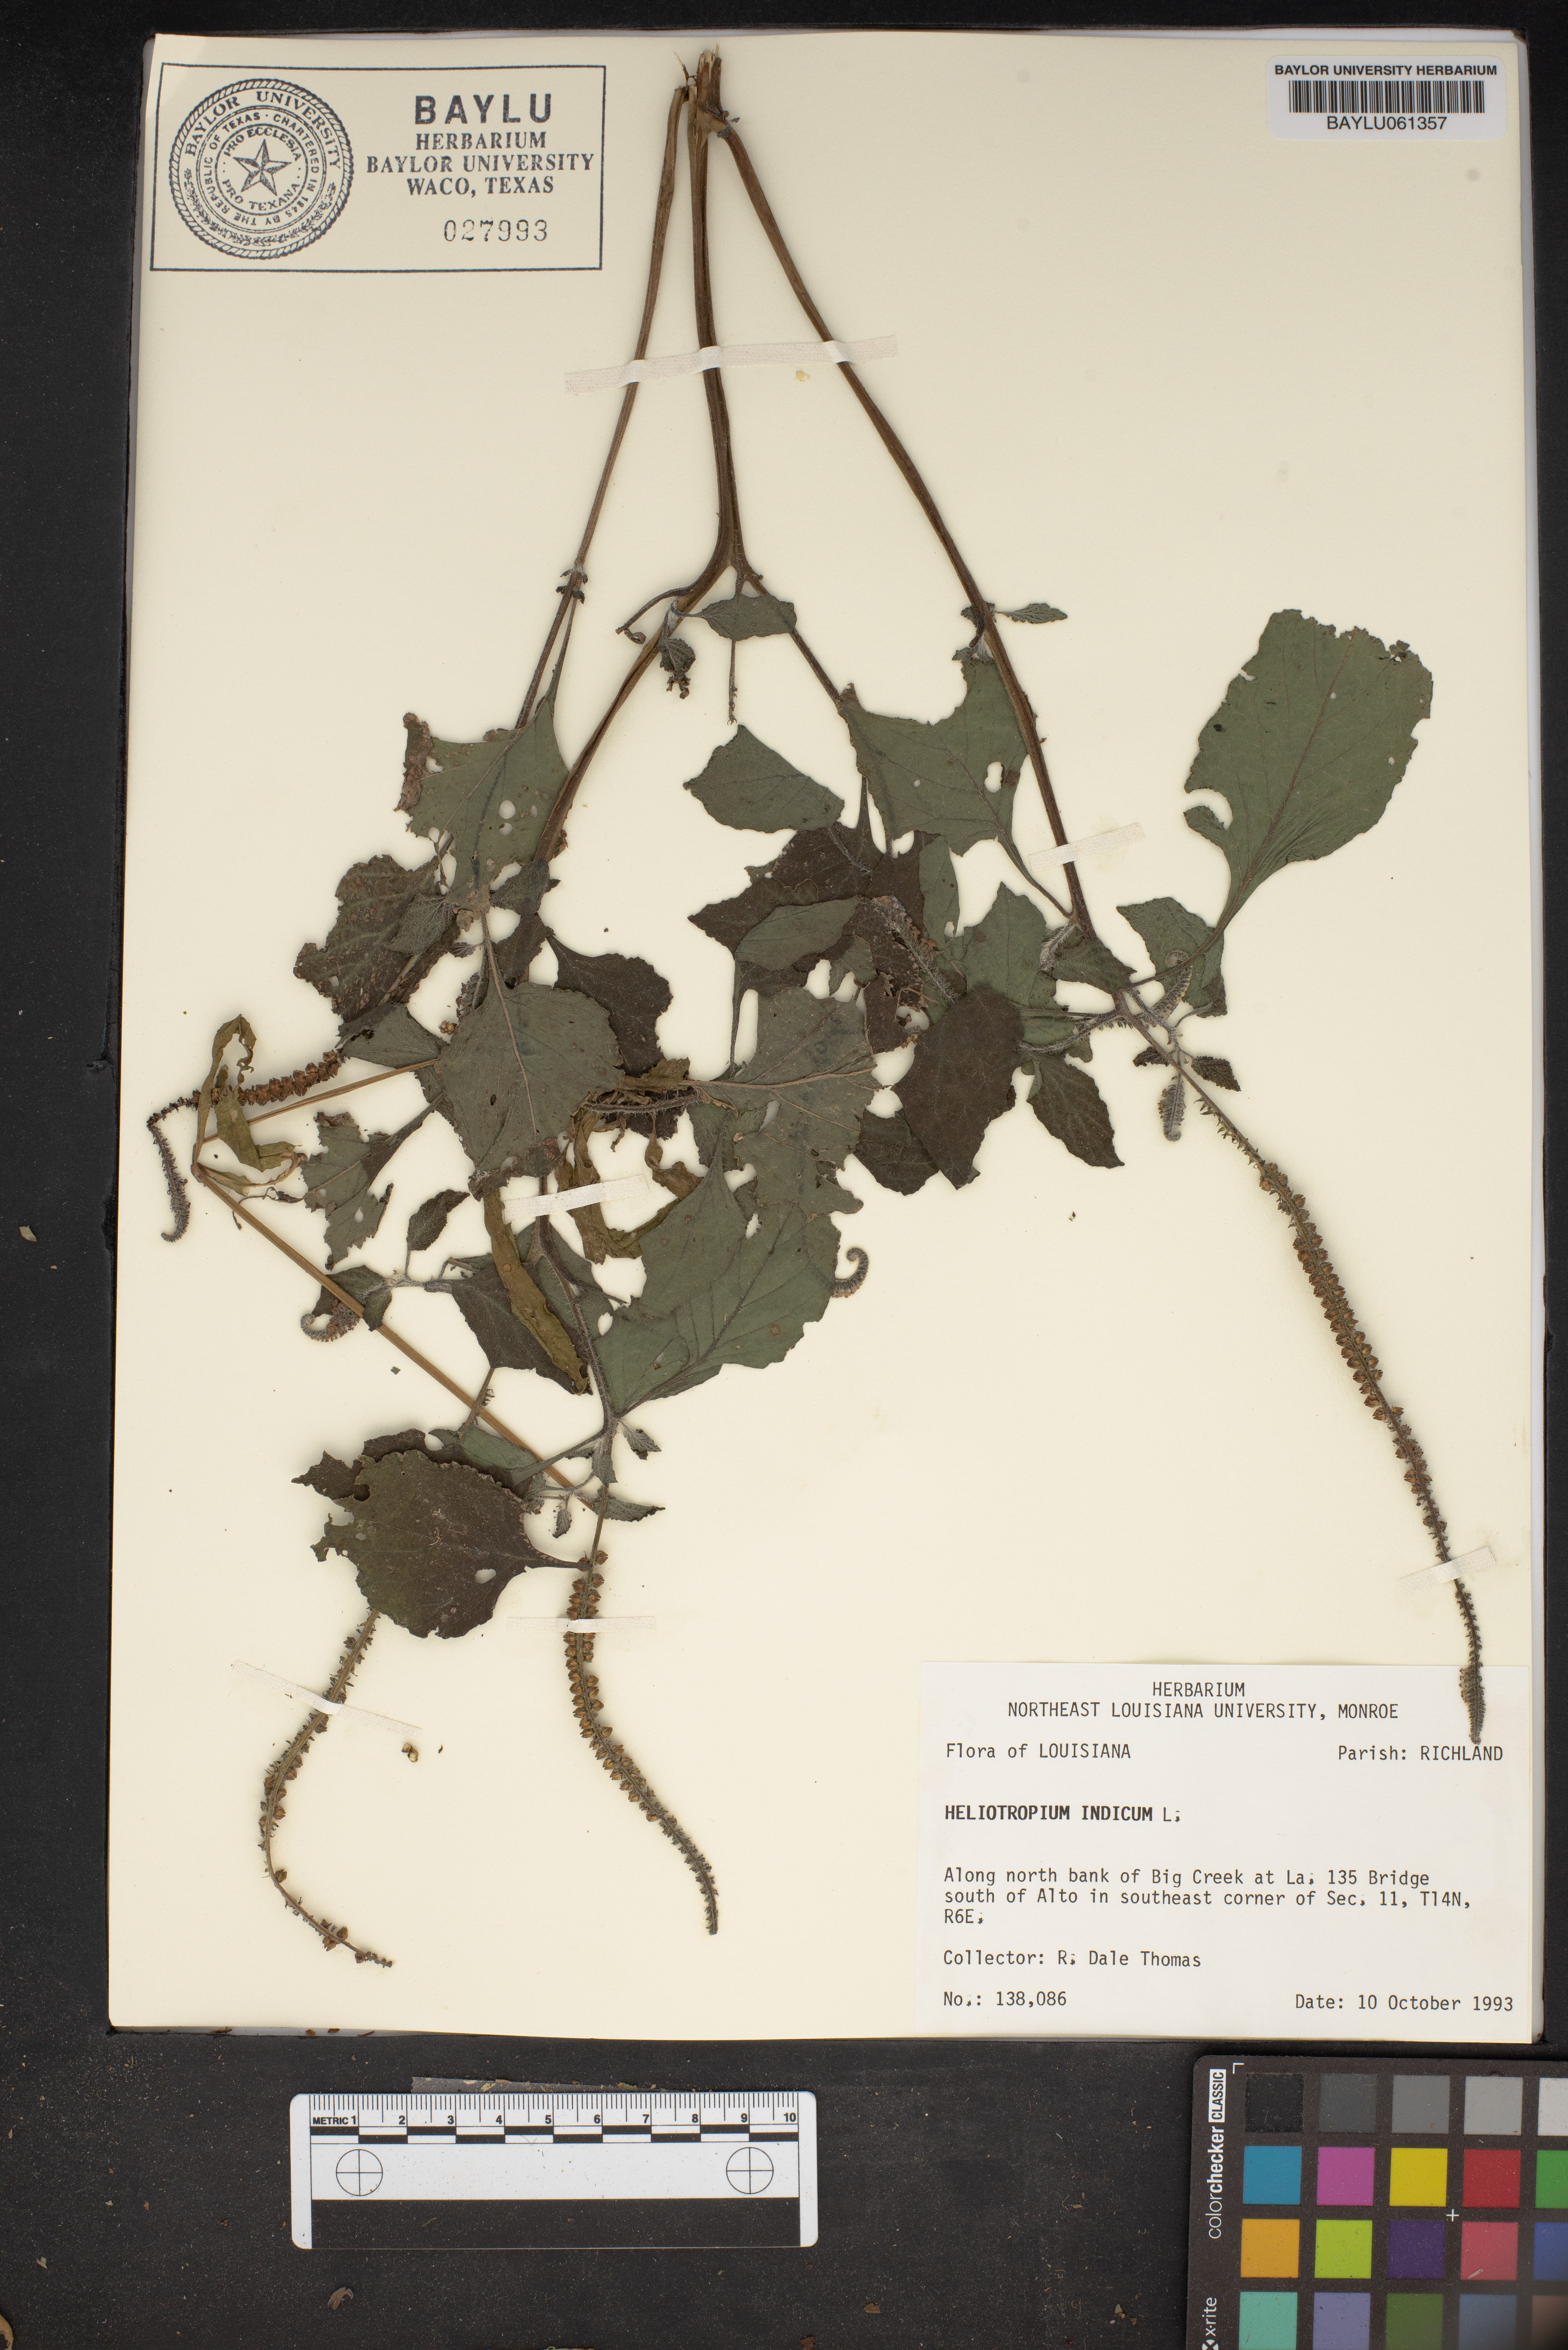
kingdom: Plantae
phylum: Tracheophyta
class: Magnoliopsida
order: Boraginales
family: Heliotropiaceae
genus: Heliotropium
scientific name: Heliotropium indicum
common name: Indian heliotrope
